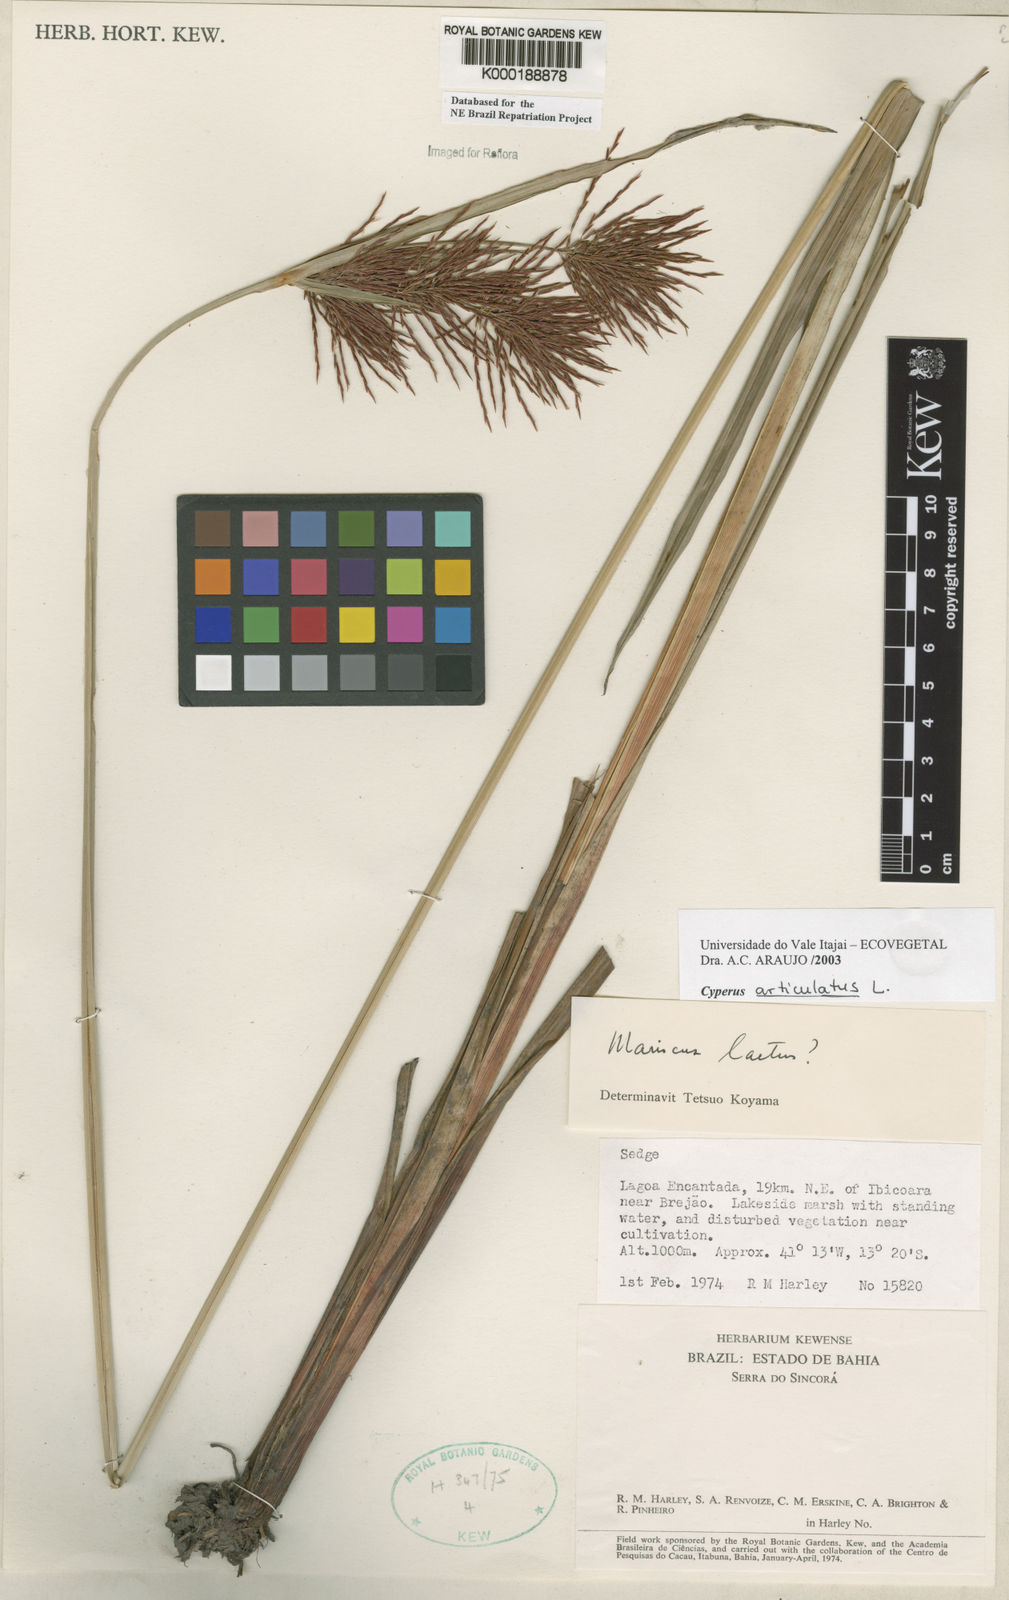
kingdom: Plantae
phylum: Tracheophyta
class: Liliopsida
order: Poales
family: Cyperaceae
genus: Cyperus
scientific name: Cyperus articulatus
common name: Jointed flatsedge
